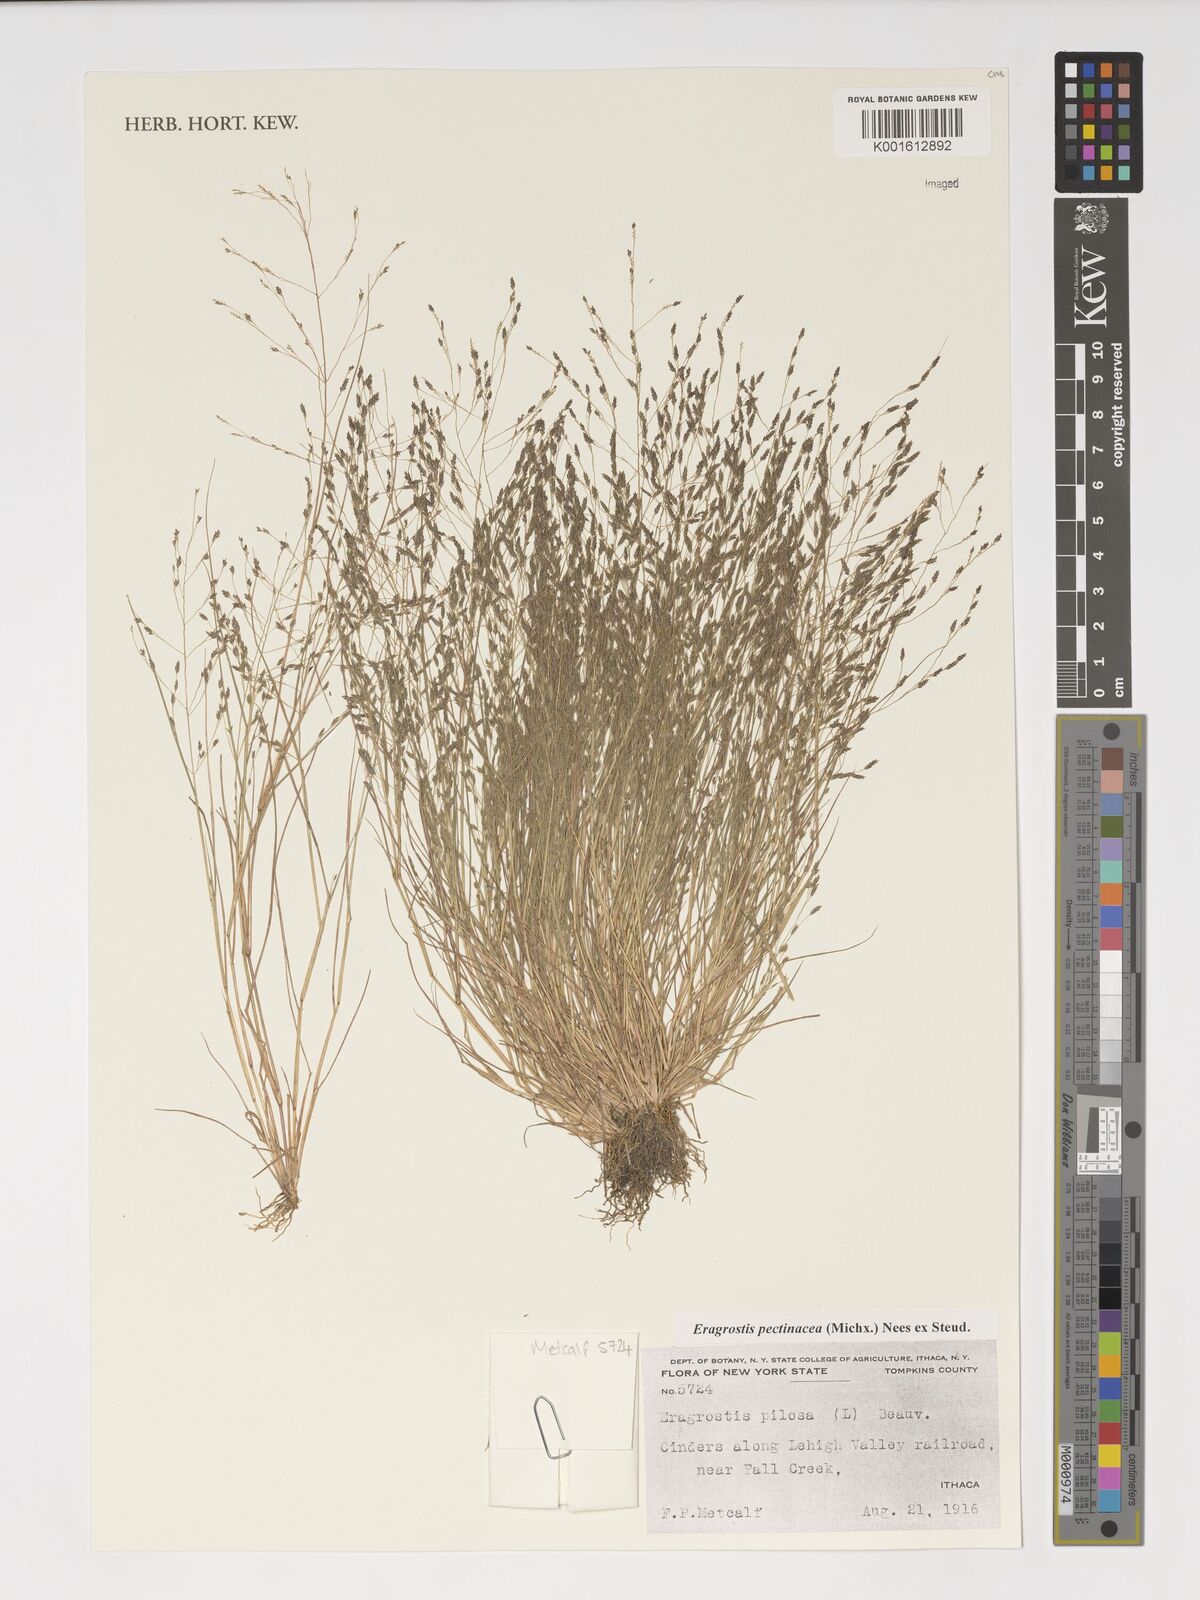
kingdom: Plantae
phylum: Tracheophyta
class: Liliopsida
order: Poales
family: Poaceae
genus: Eragrostis
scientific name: Eragrostis pectinacea
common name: Tufted lovegrass
